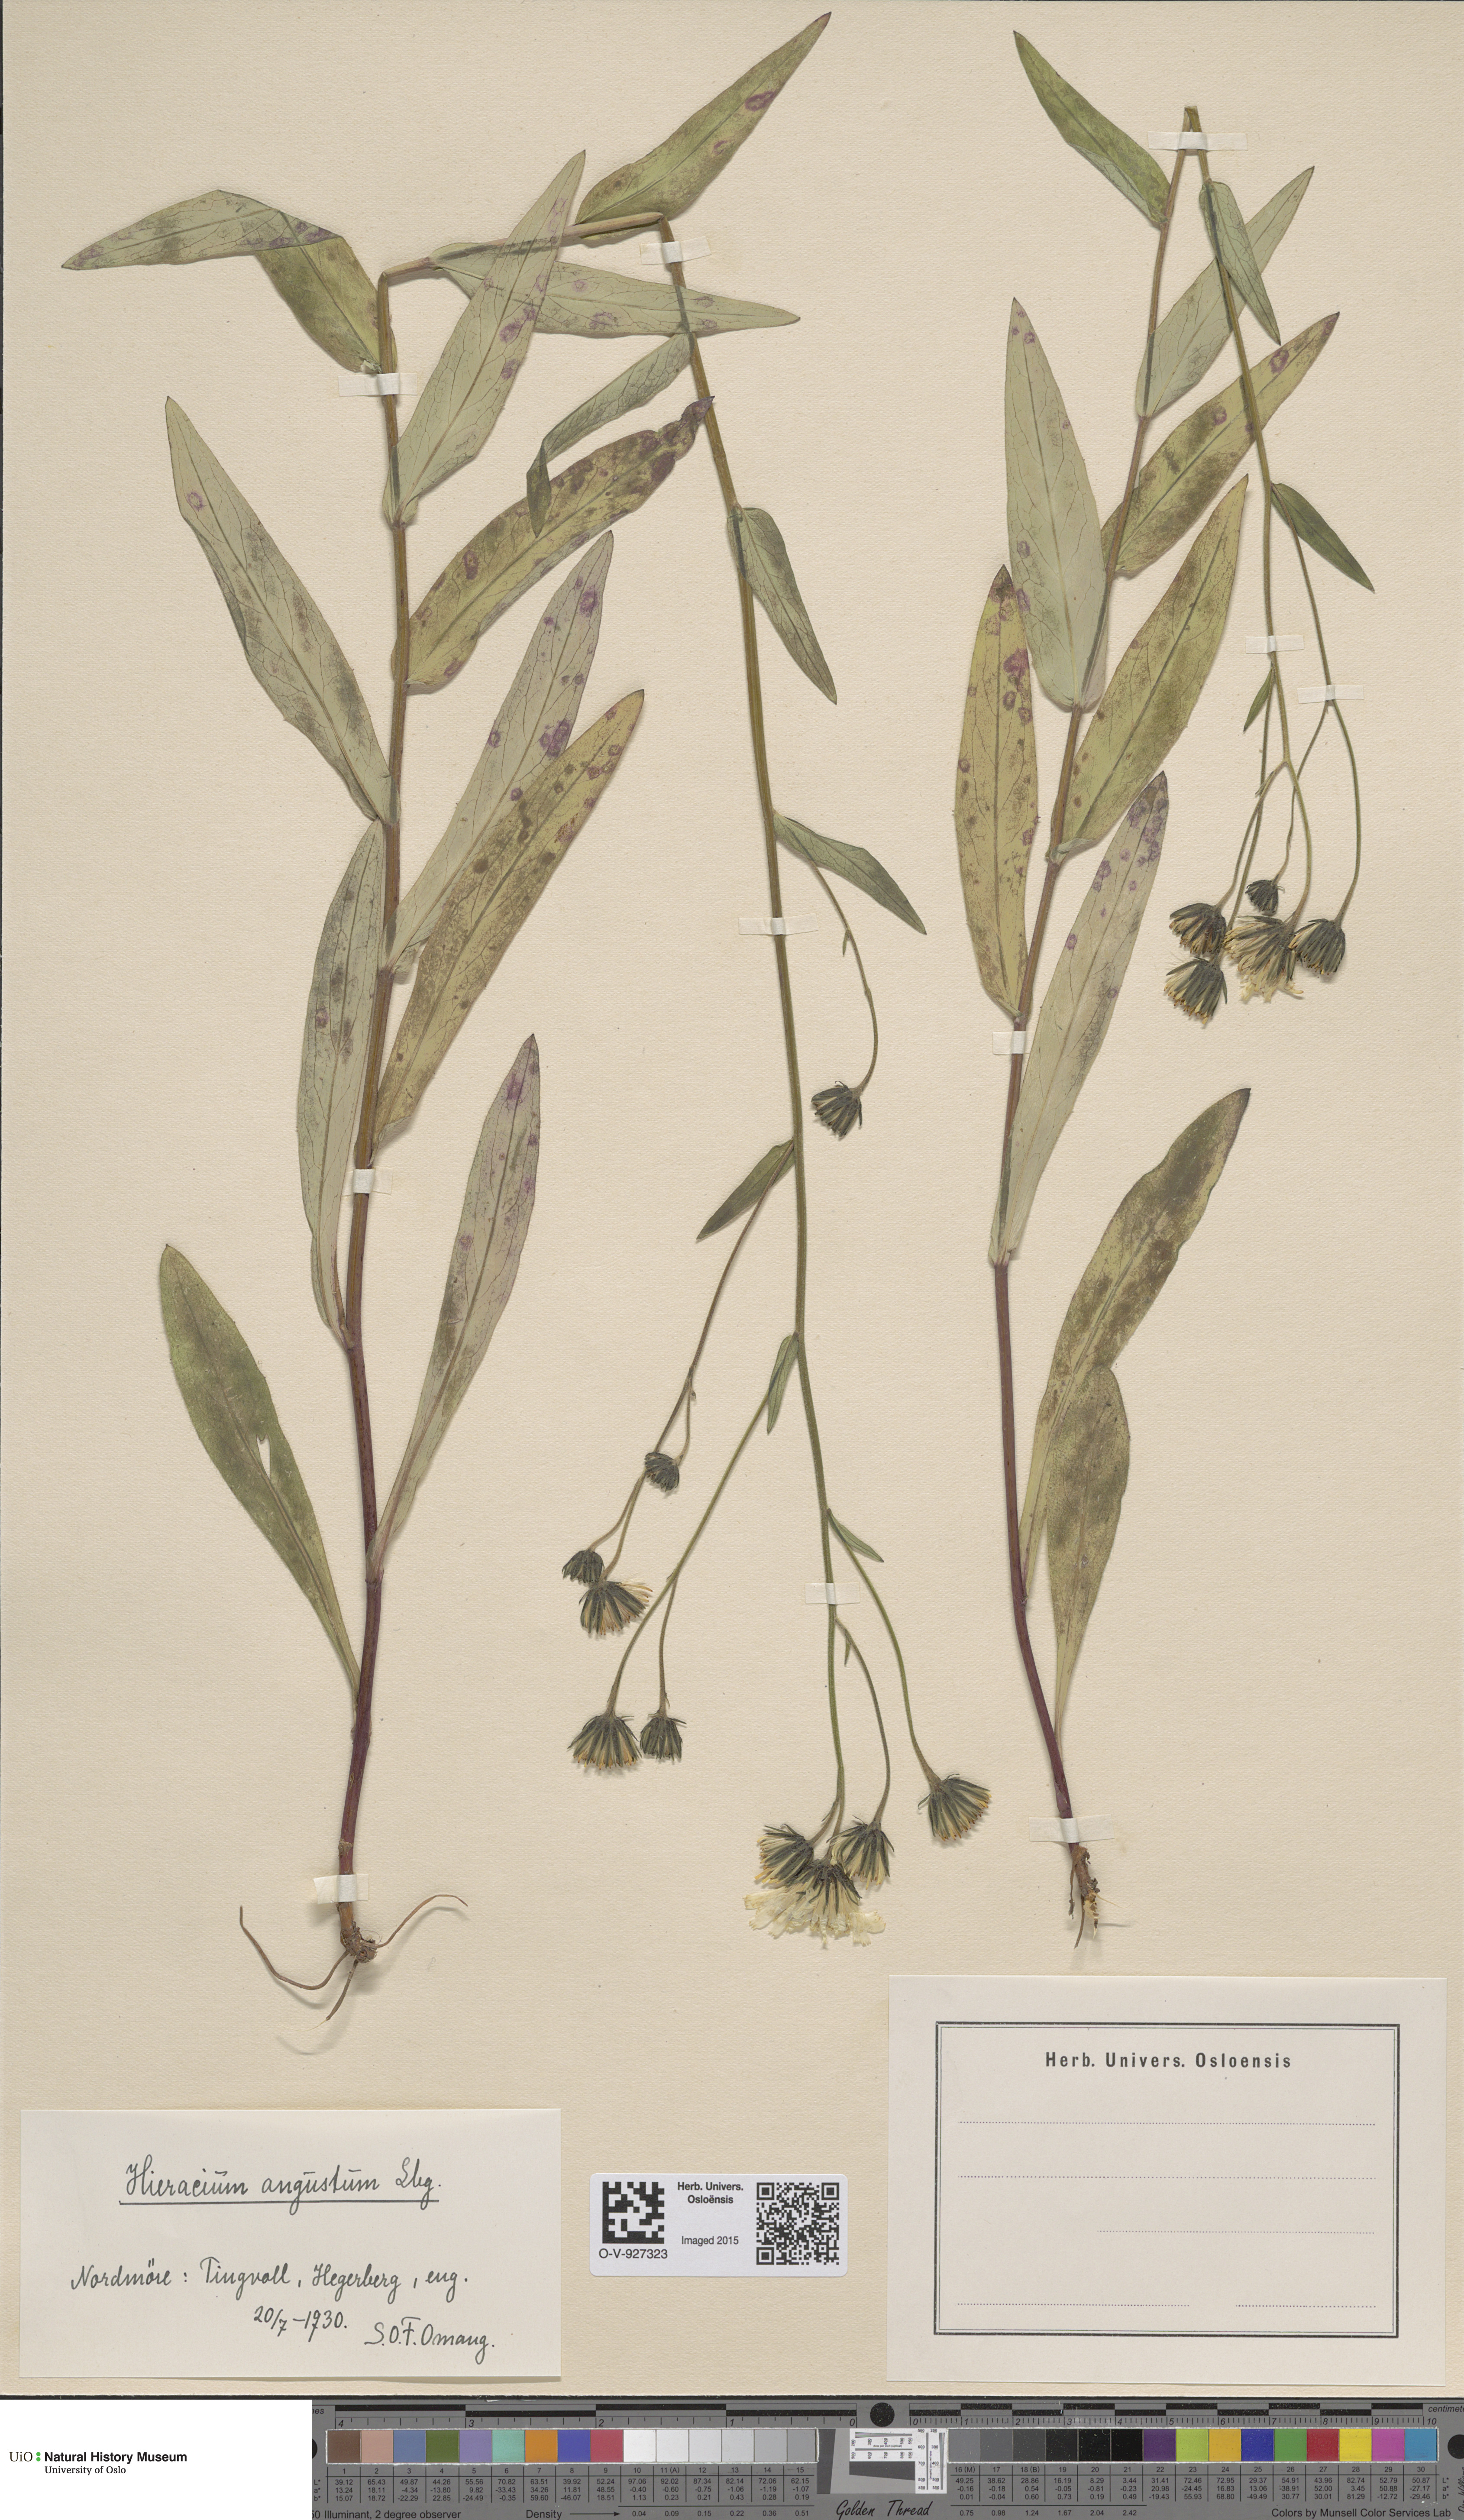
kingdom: Plantae
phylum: Tracheophyta
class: Magnoliopsida
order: Asterales
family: Asteraceae
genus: Hieracium
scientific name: Hieracium angustum
